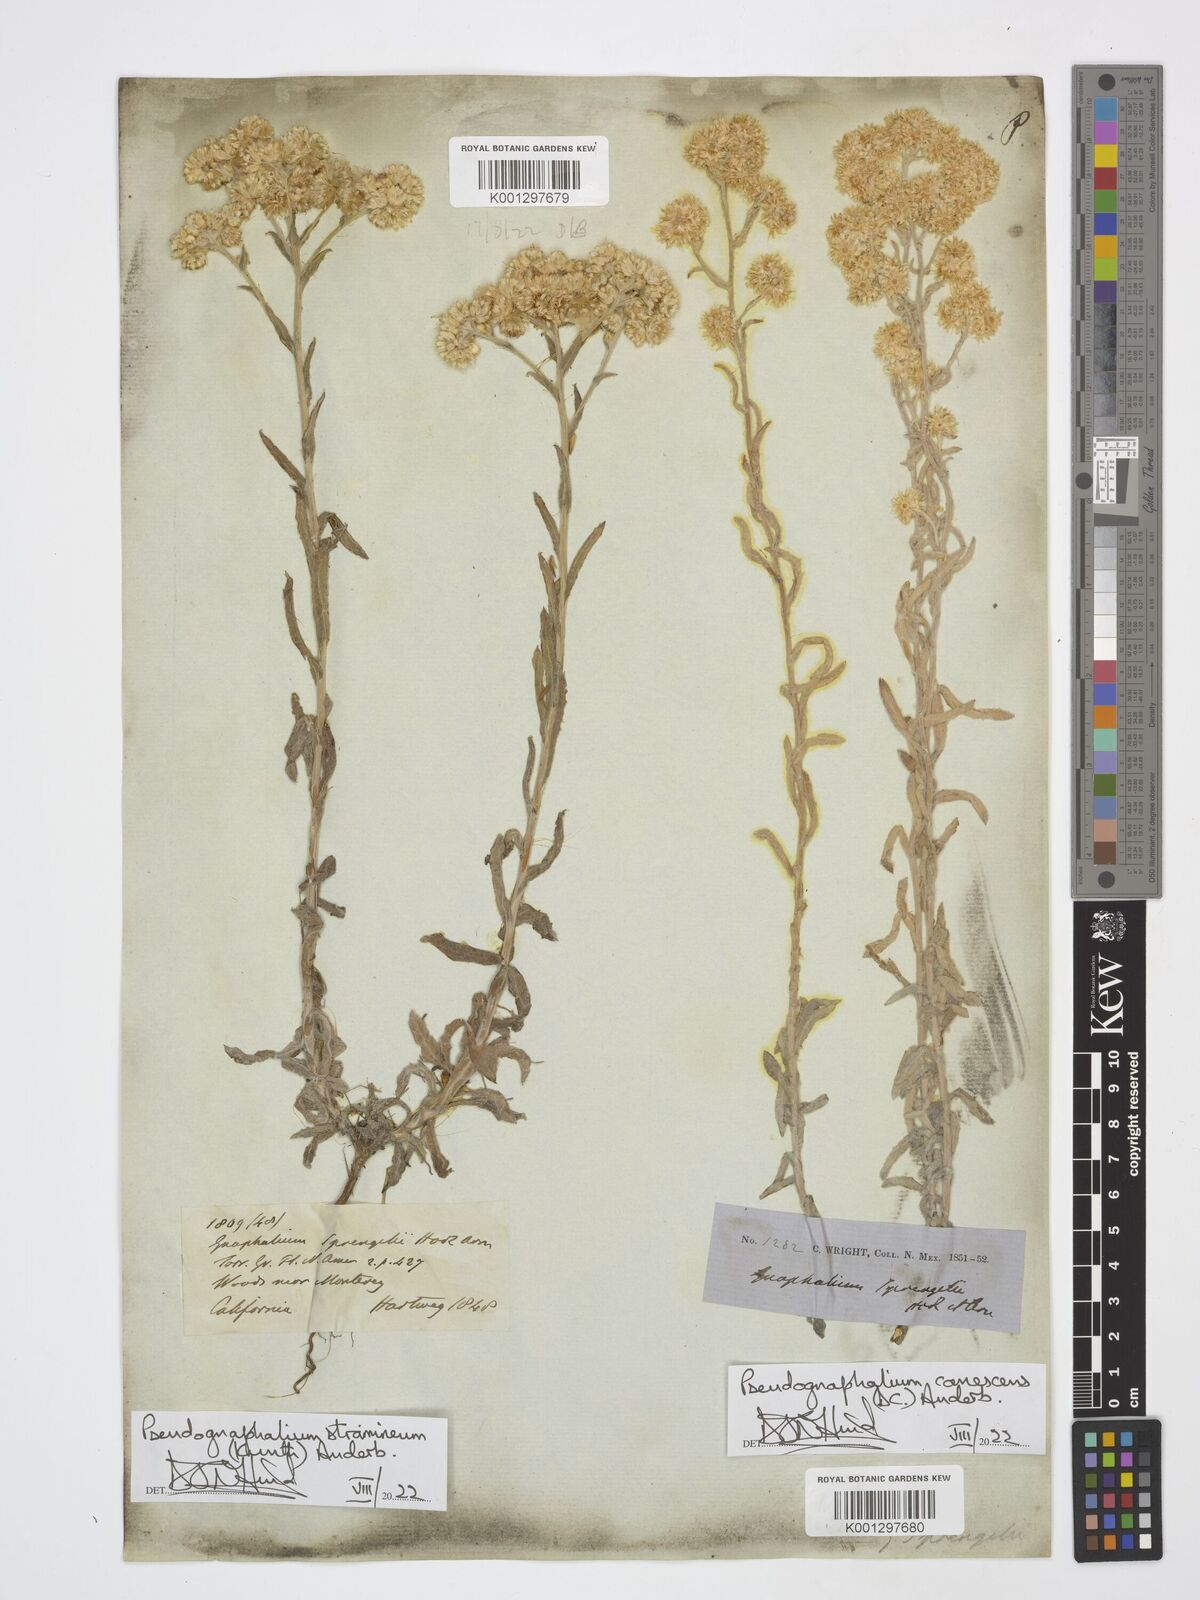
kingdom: Plantae
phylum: Tracheophyta
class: Magnoliopsida
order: Asterales
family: Asteraceae
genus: Pseudognaphalium
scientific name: Pseudognaphalium canescens
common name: Wright's rabbit-tobacco
